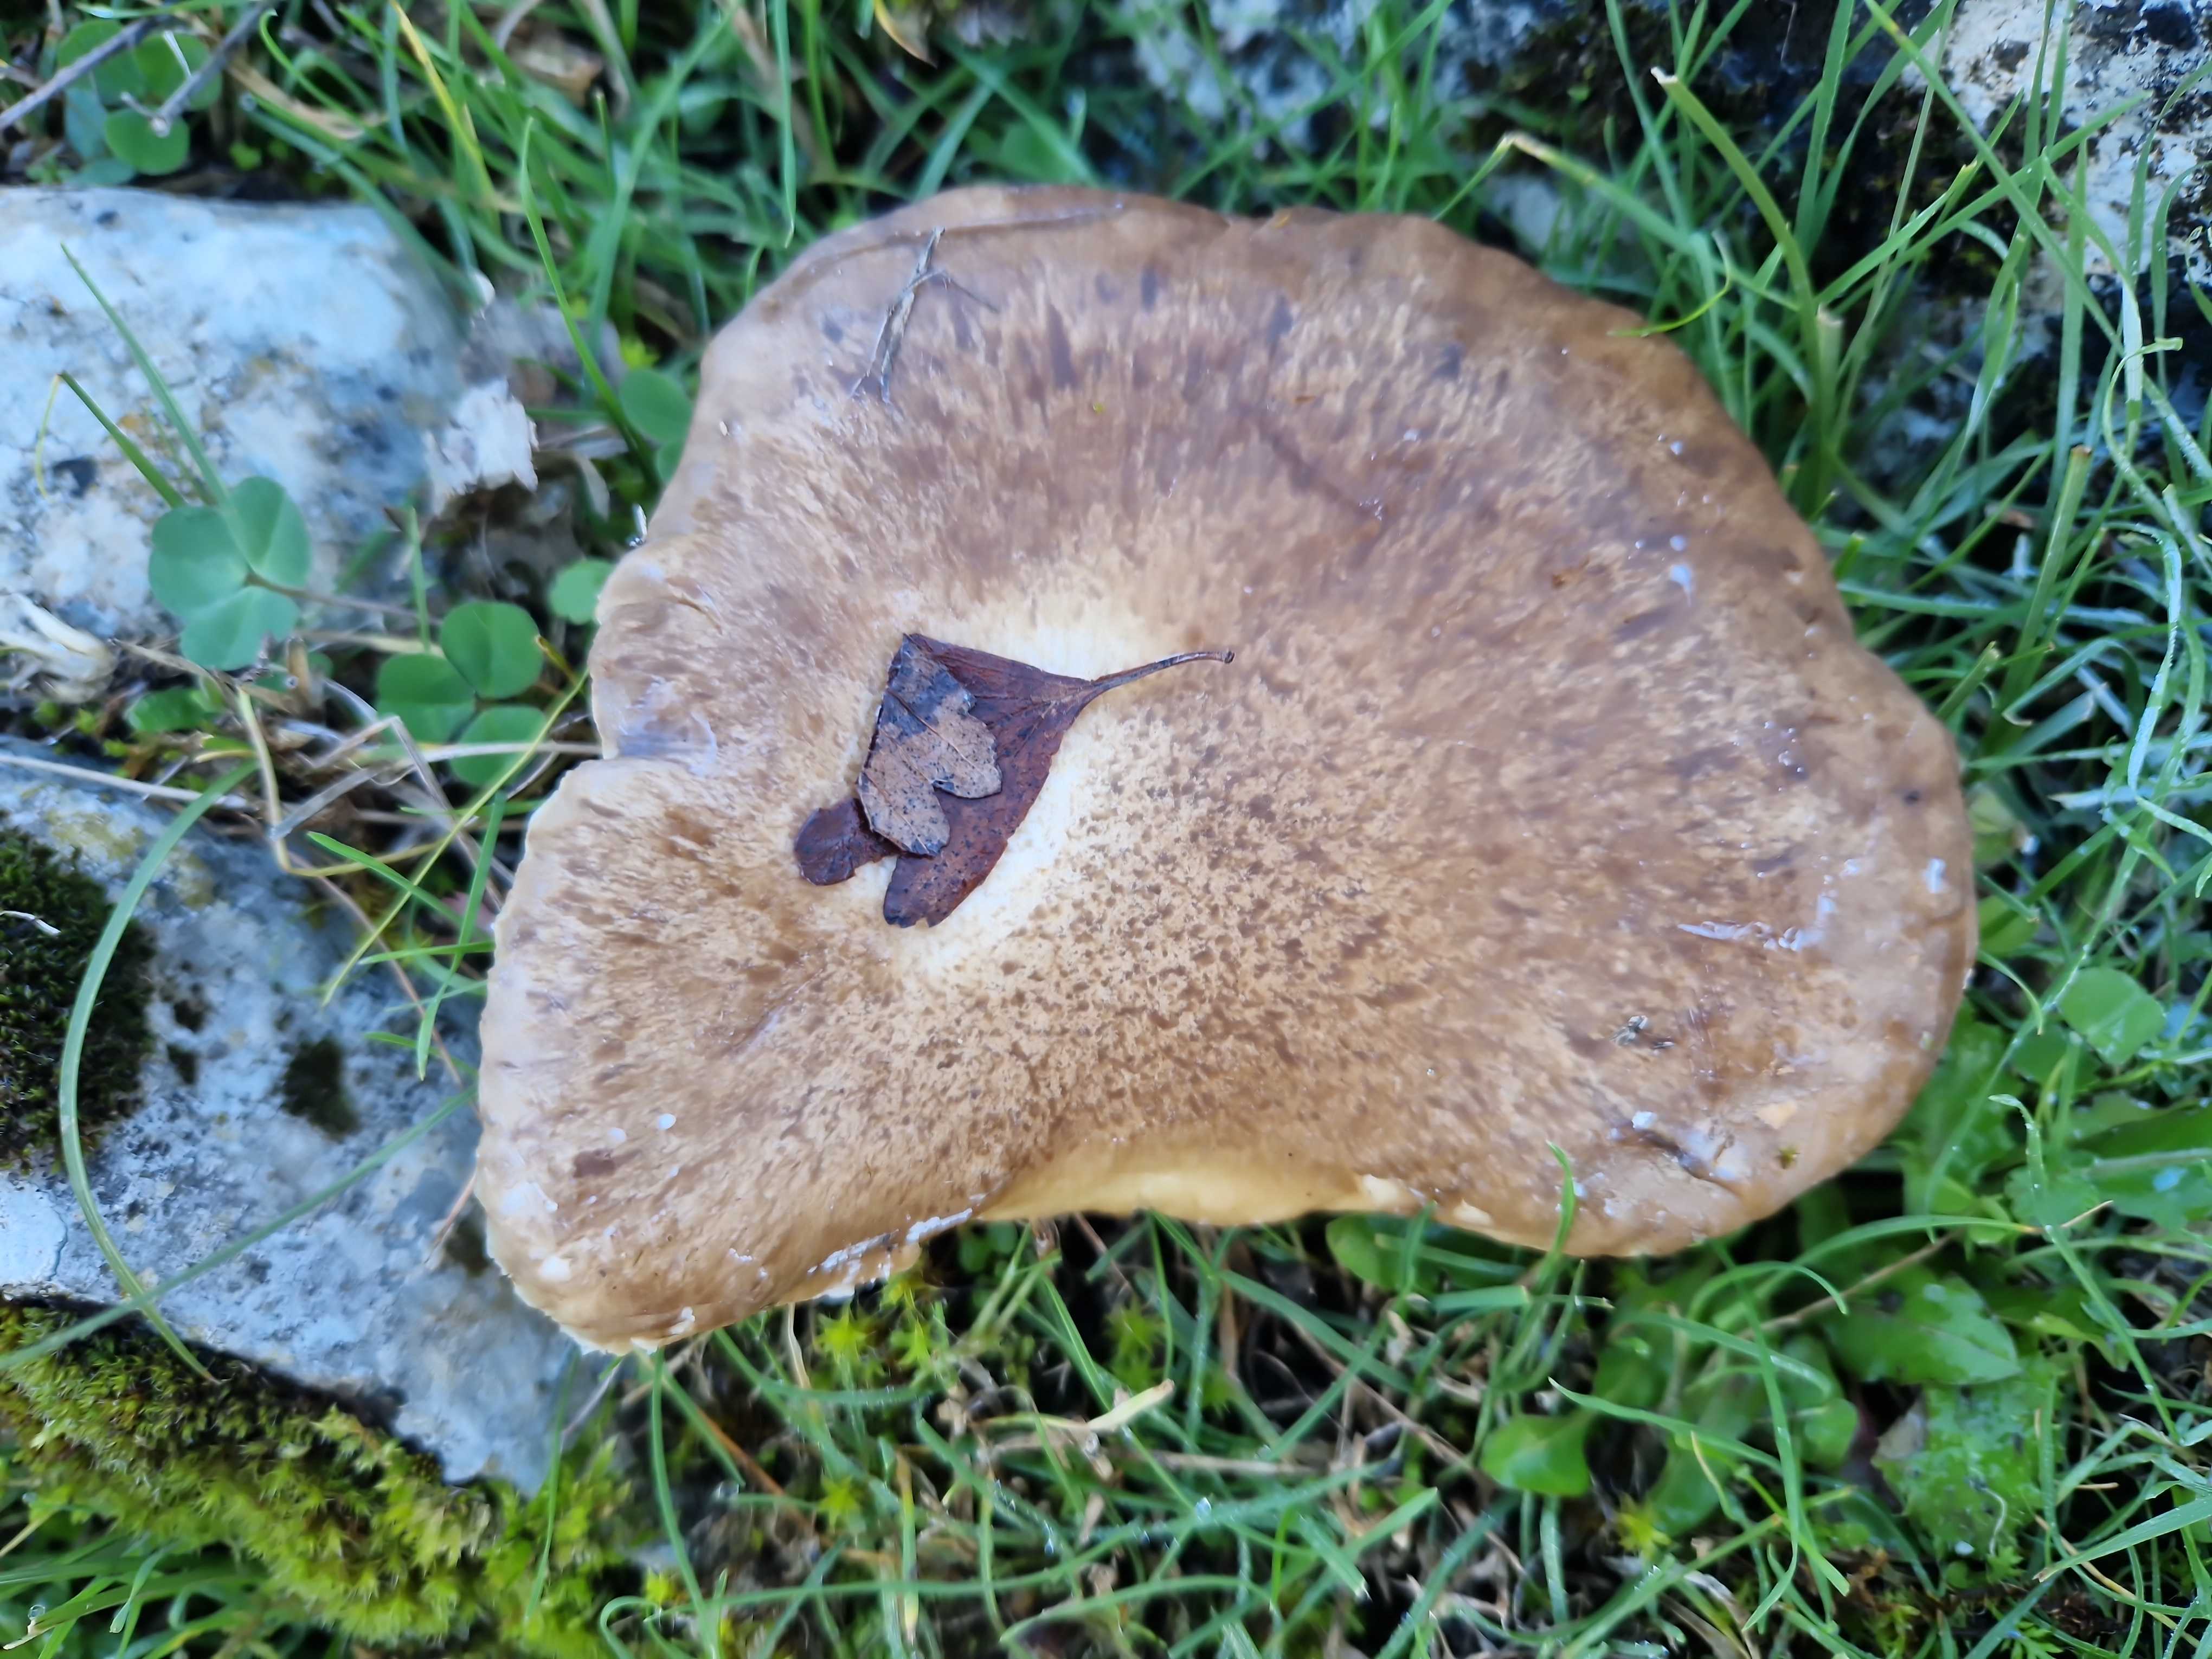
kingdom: Fungi
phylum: Basidiomycota
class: Agaricomycetes
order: Agaricales
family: Pleurotaceae
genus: Pleurotus
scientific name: Pleurotus eryngii
